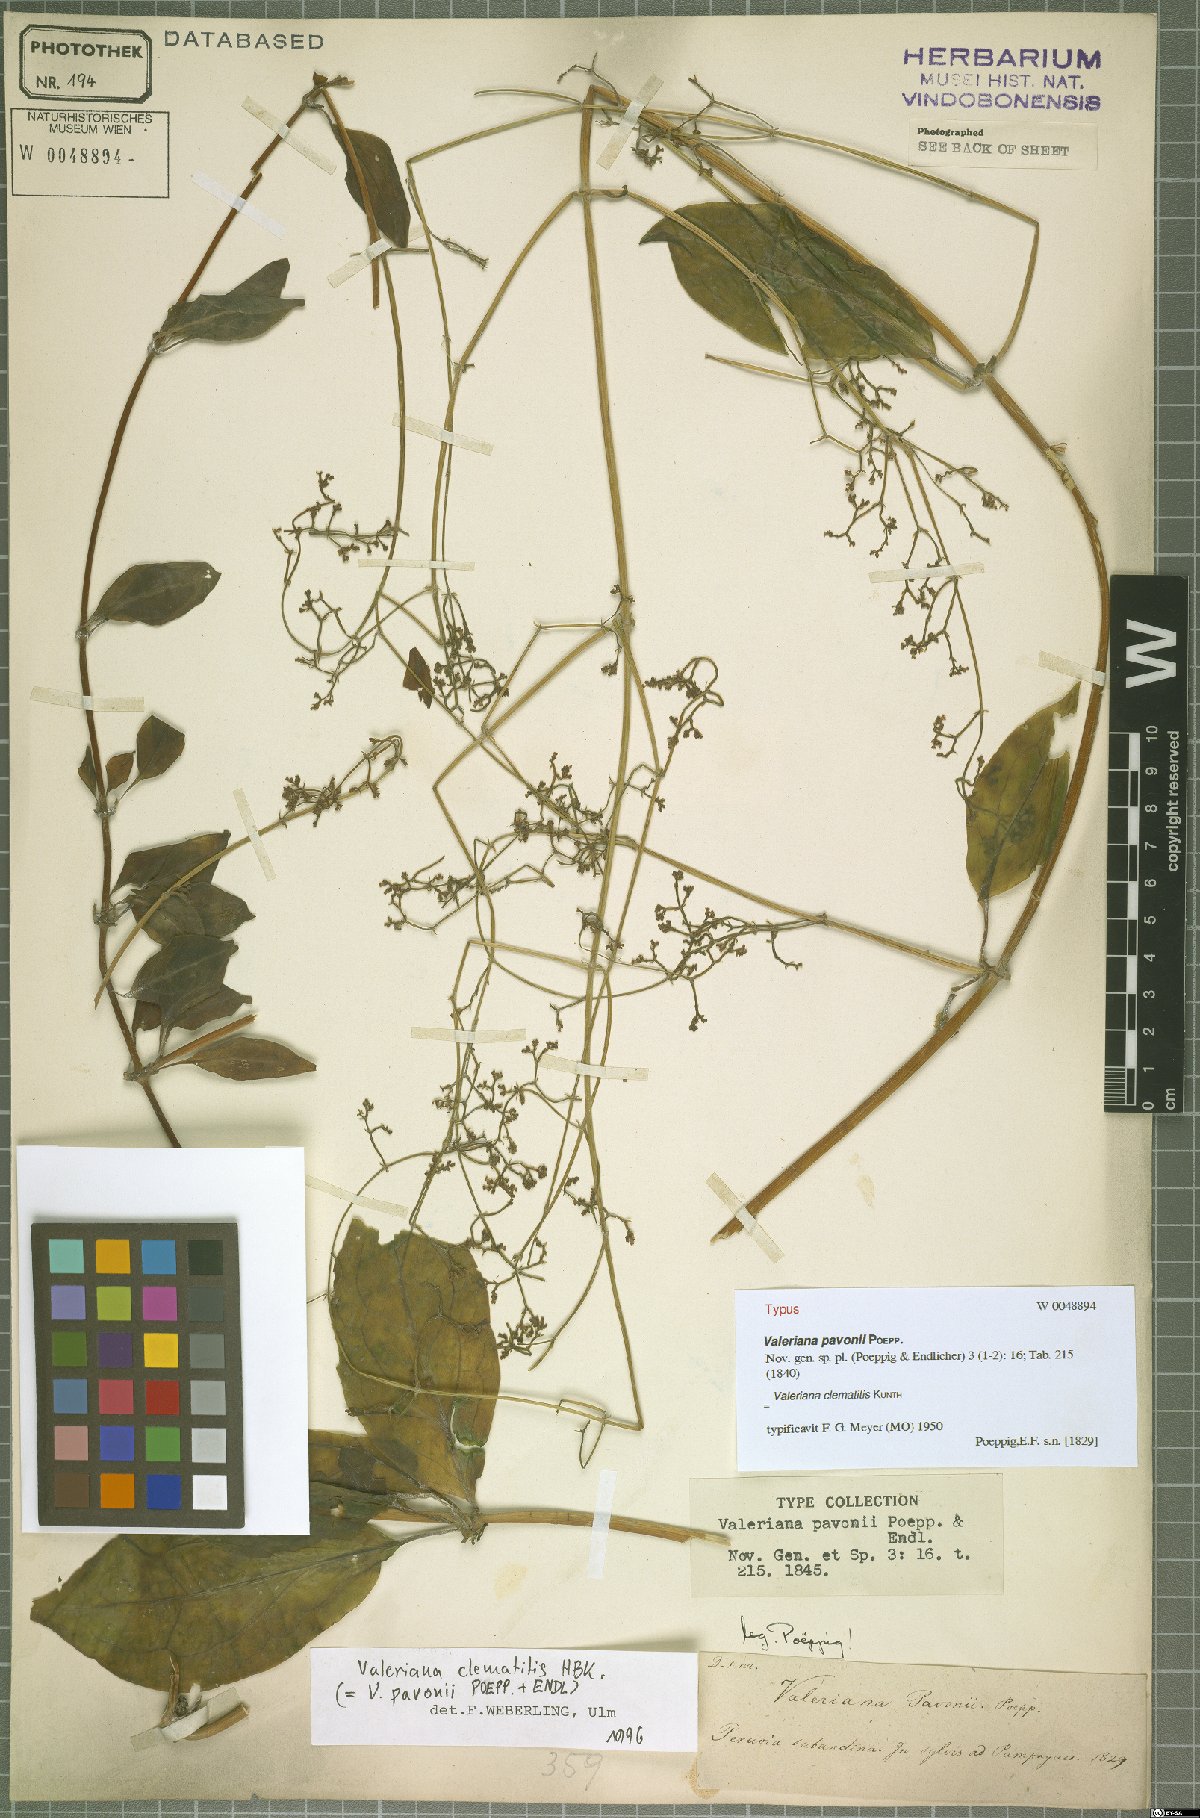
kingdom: Plantae
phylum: Tracheophyta
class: Magnoliopsida
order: Dipsacales
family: Caprifoliaceae
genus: Valeriana
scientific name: Valeriana clematitis
